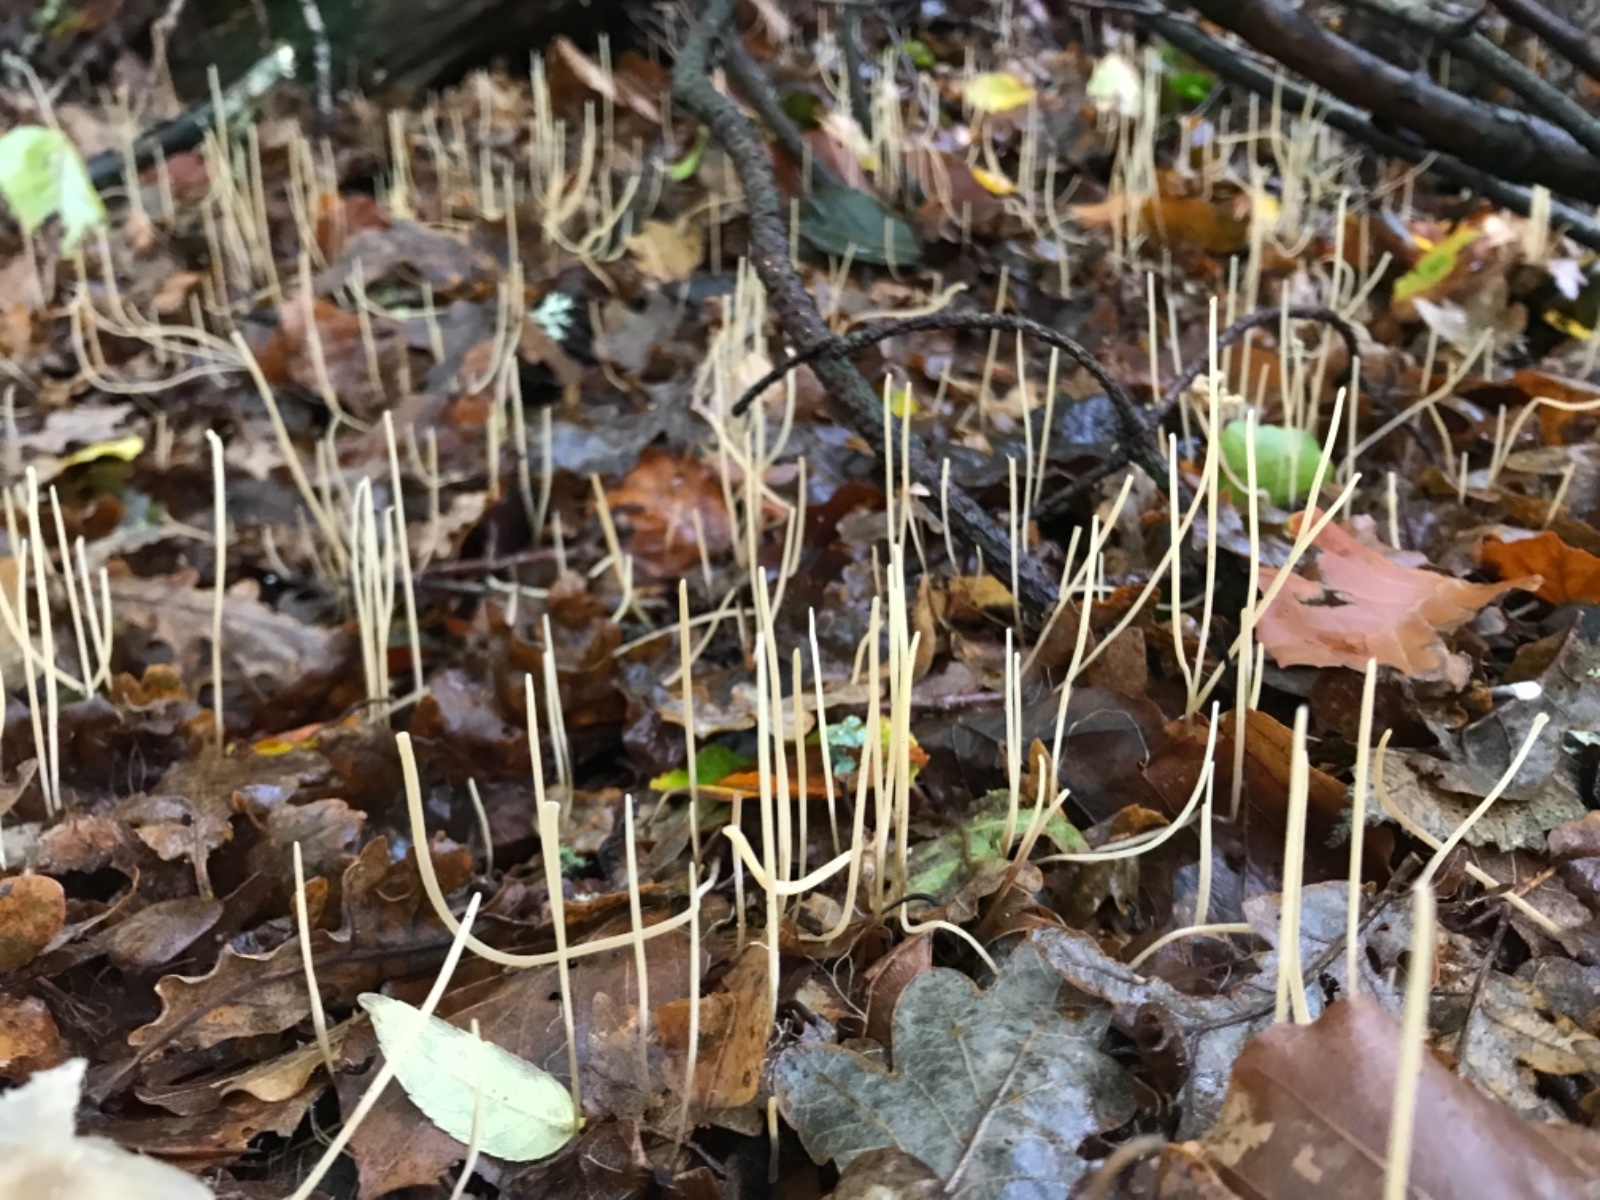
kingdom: Fungi
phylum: Basidiomycota
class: Agaricomycetes
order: Agaricales
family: Typhulaceae
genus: Typhula
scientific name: Typhula juncea
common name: trådagtig rørkølle
